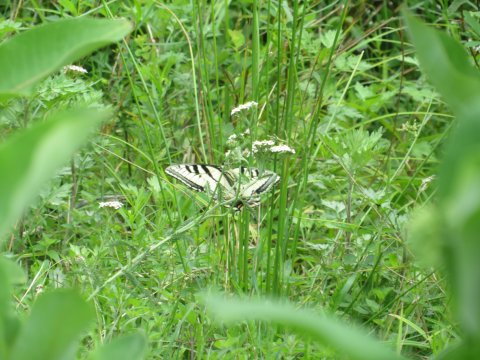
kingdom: Animalia
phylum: Arthropoda
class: Insecta
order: Lepidoptera
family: Papilionidae
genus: Pterourus
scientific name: Pterourus glaucus
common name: Eastern Tiger Swallowtail
